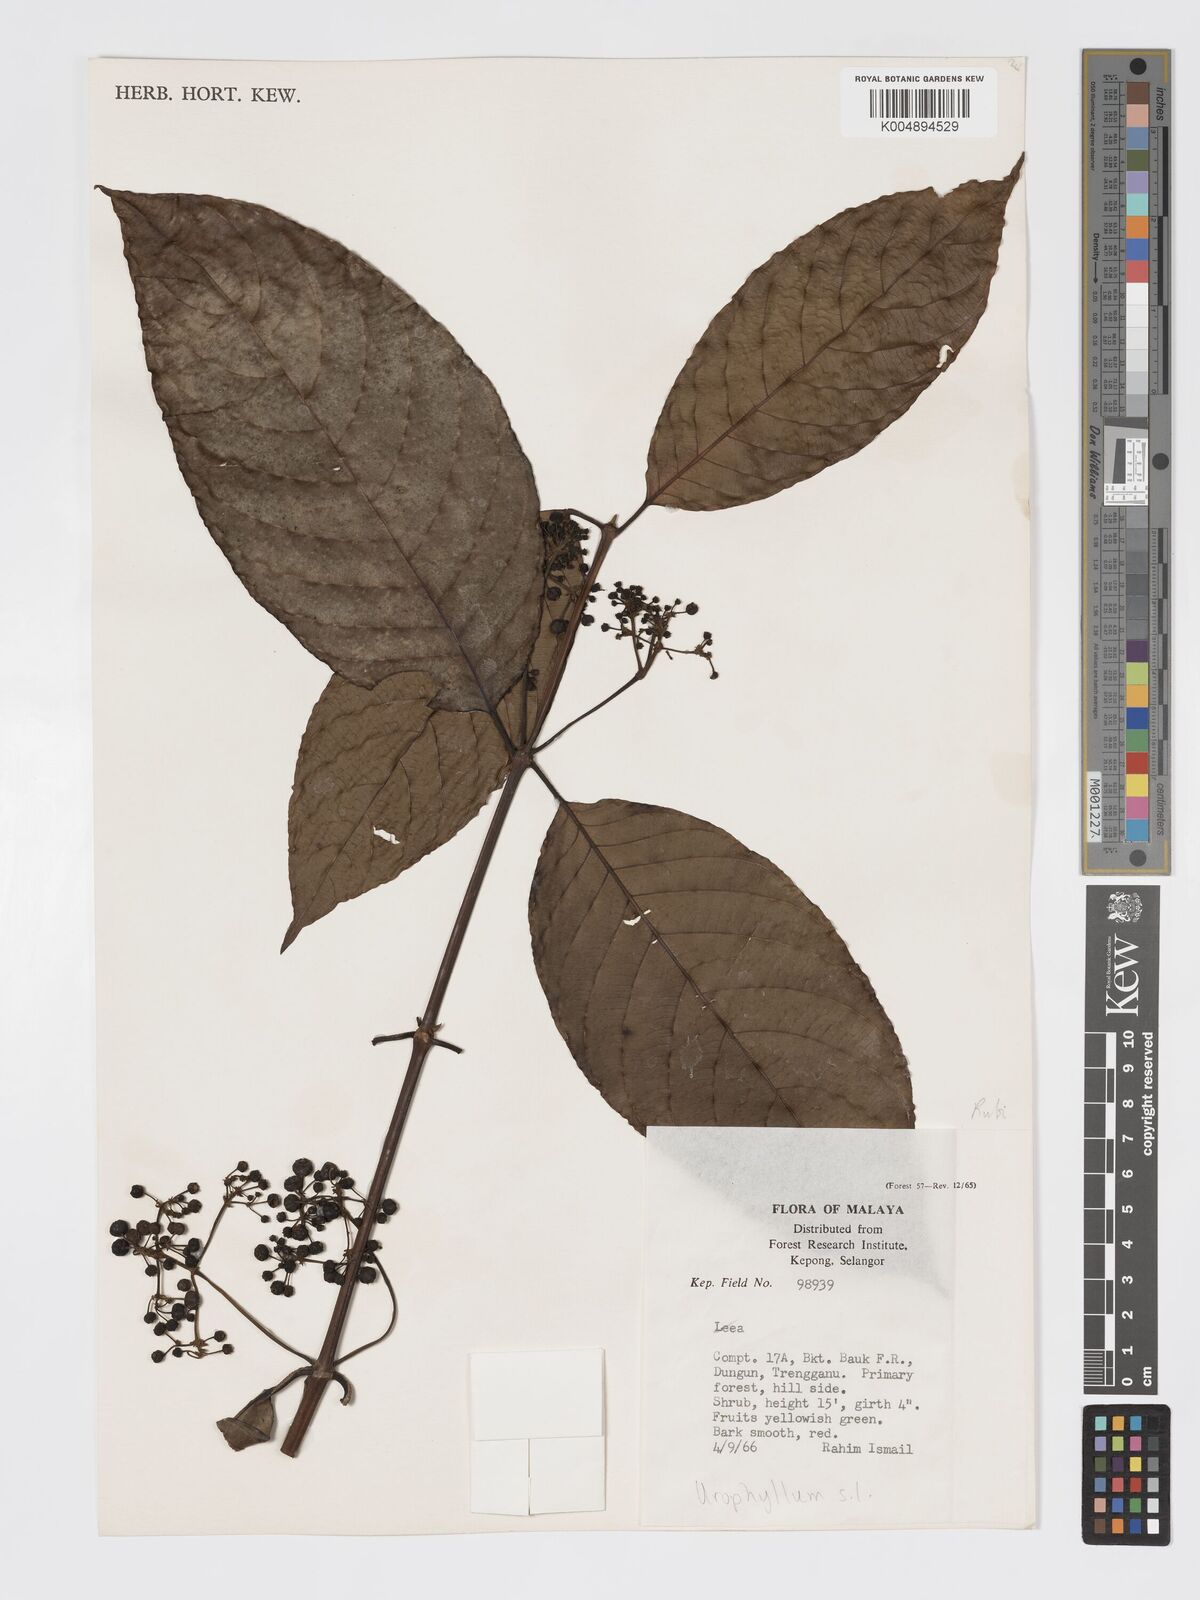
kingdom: Plantae
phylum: Tracheophyta
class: Magnoliopsida
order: Gentianales
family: Rubiaceae
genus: Urophyllum
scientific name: Urophyllum malayense
